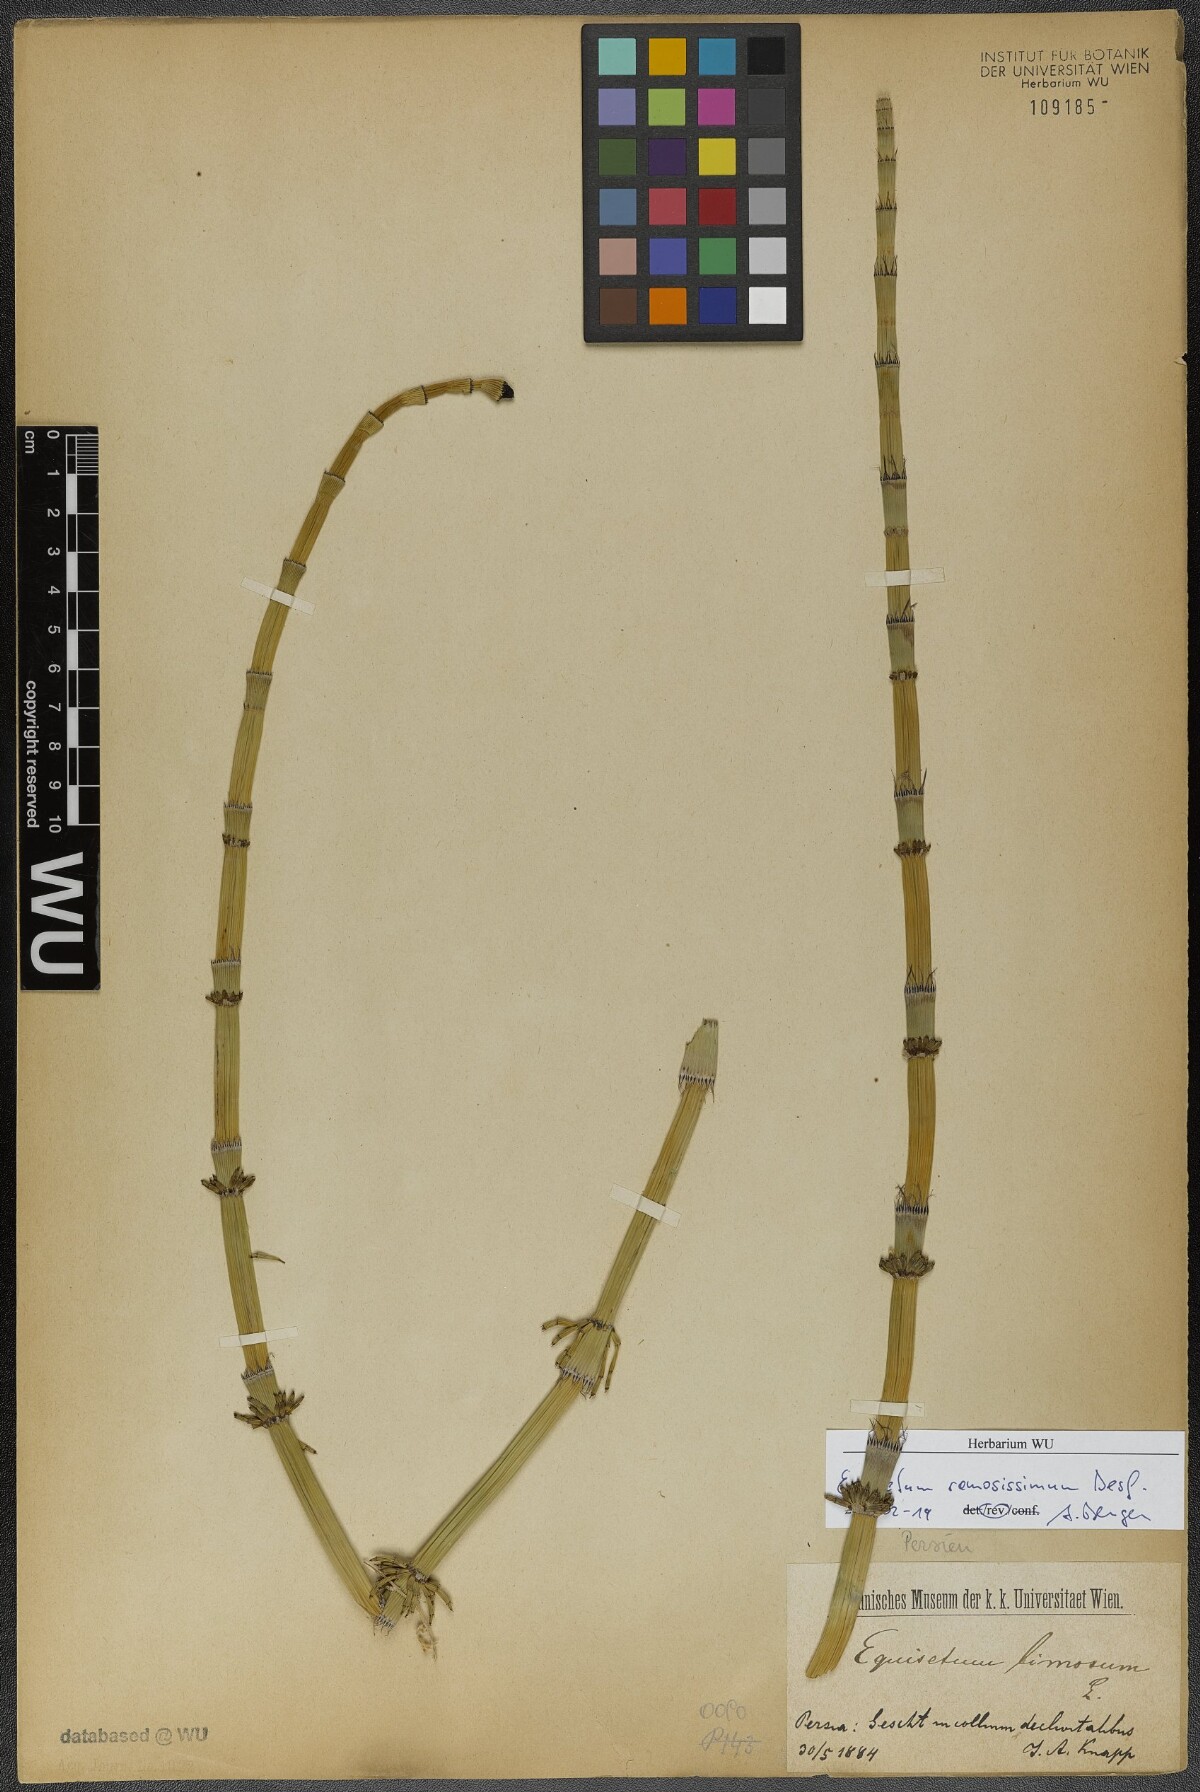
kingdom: Plantae
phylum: Tracheophyta
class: Polypodiopsida
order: Equisetales
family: Equisetaceae
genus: Equisetum
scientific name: Equisetum ramosissimum
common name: Branched horsetail
